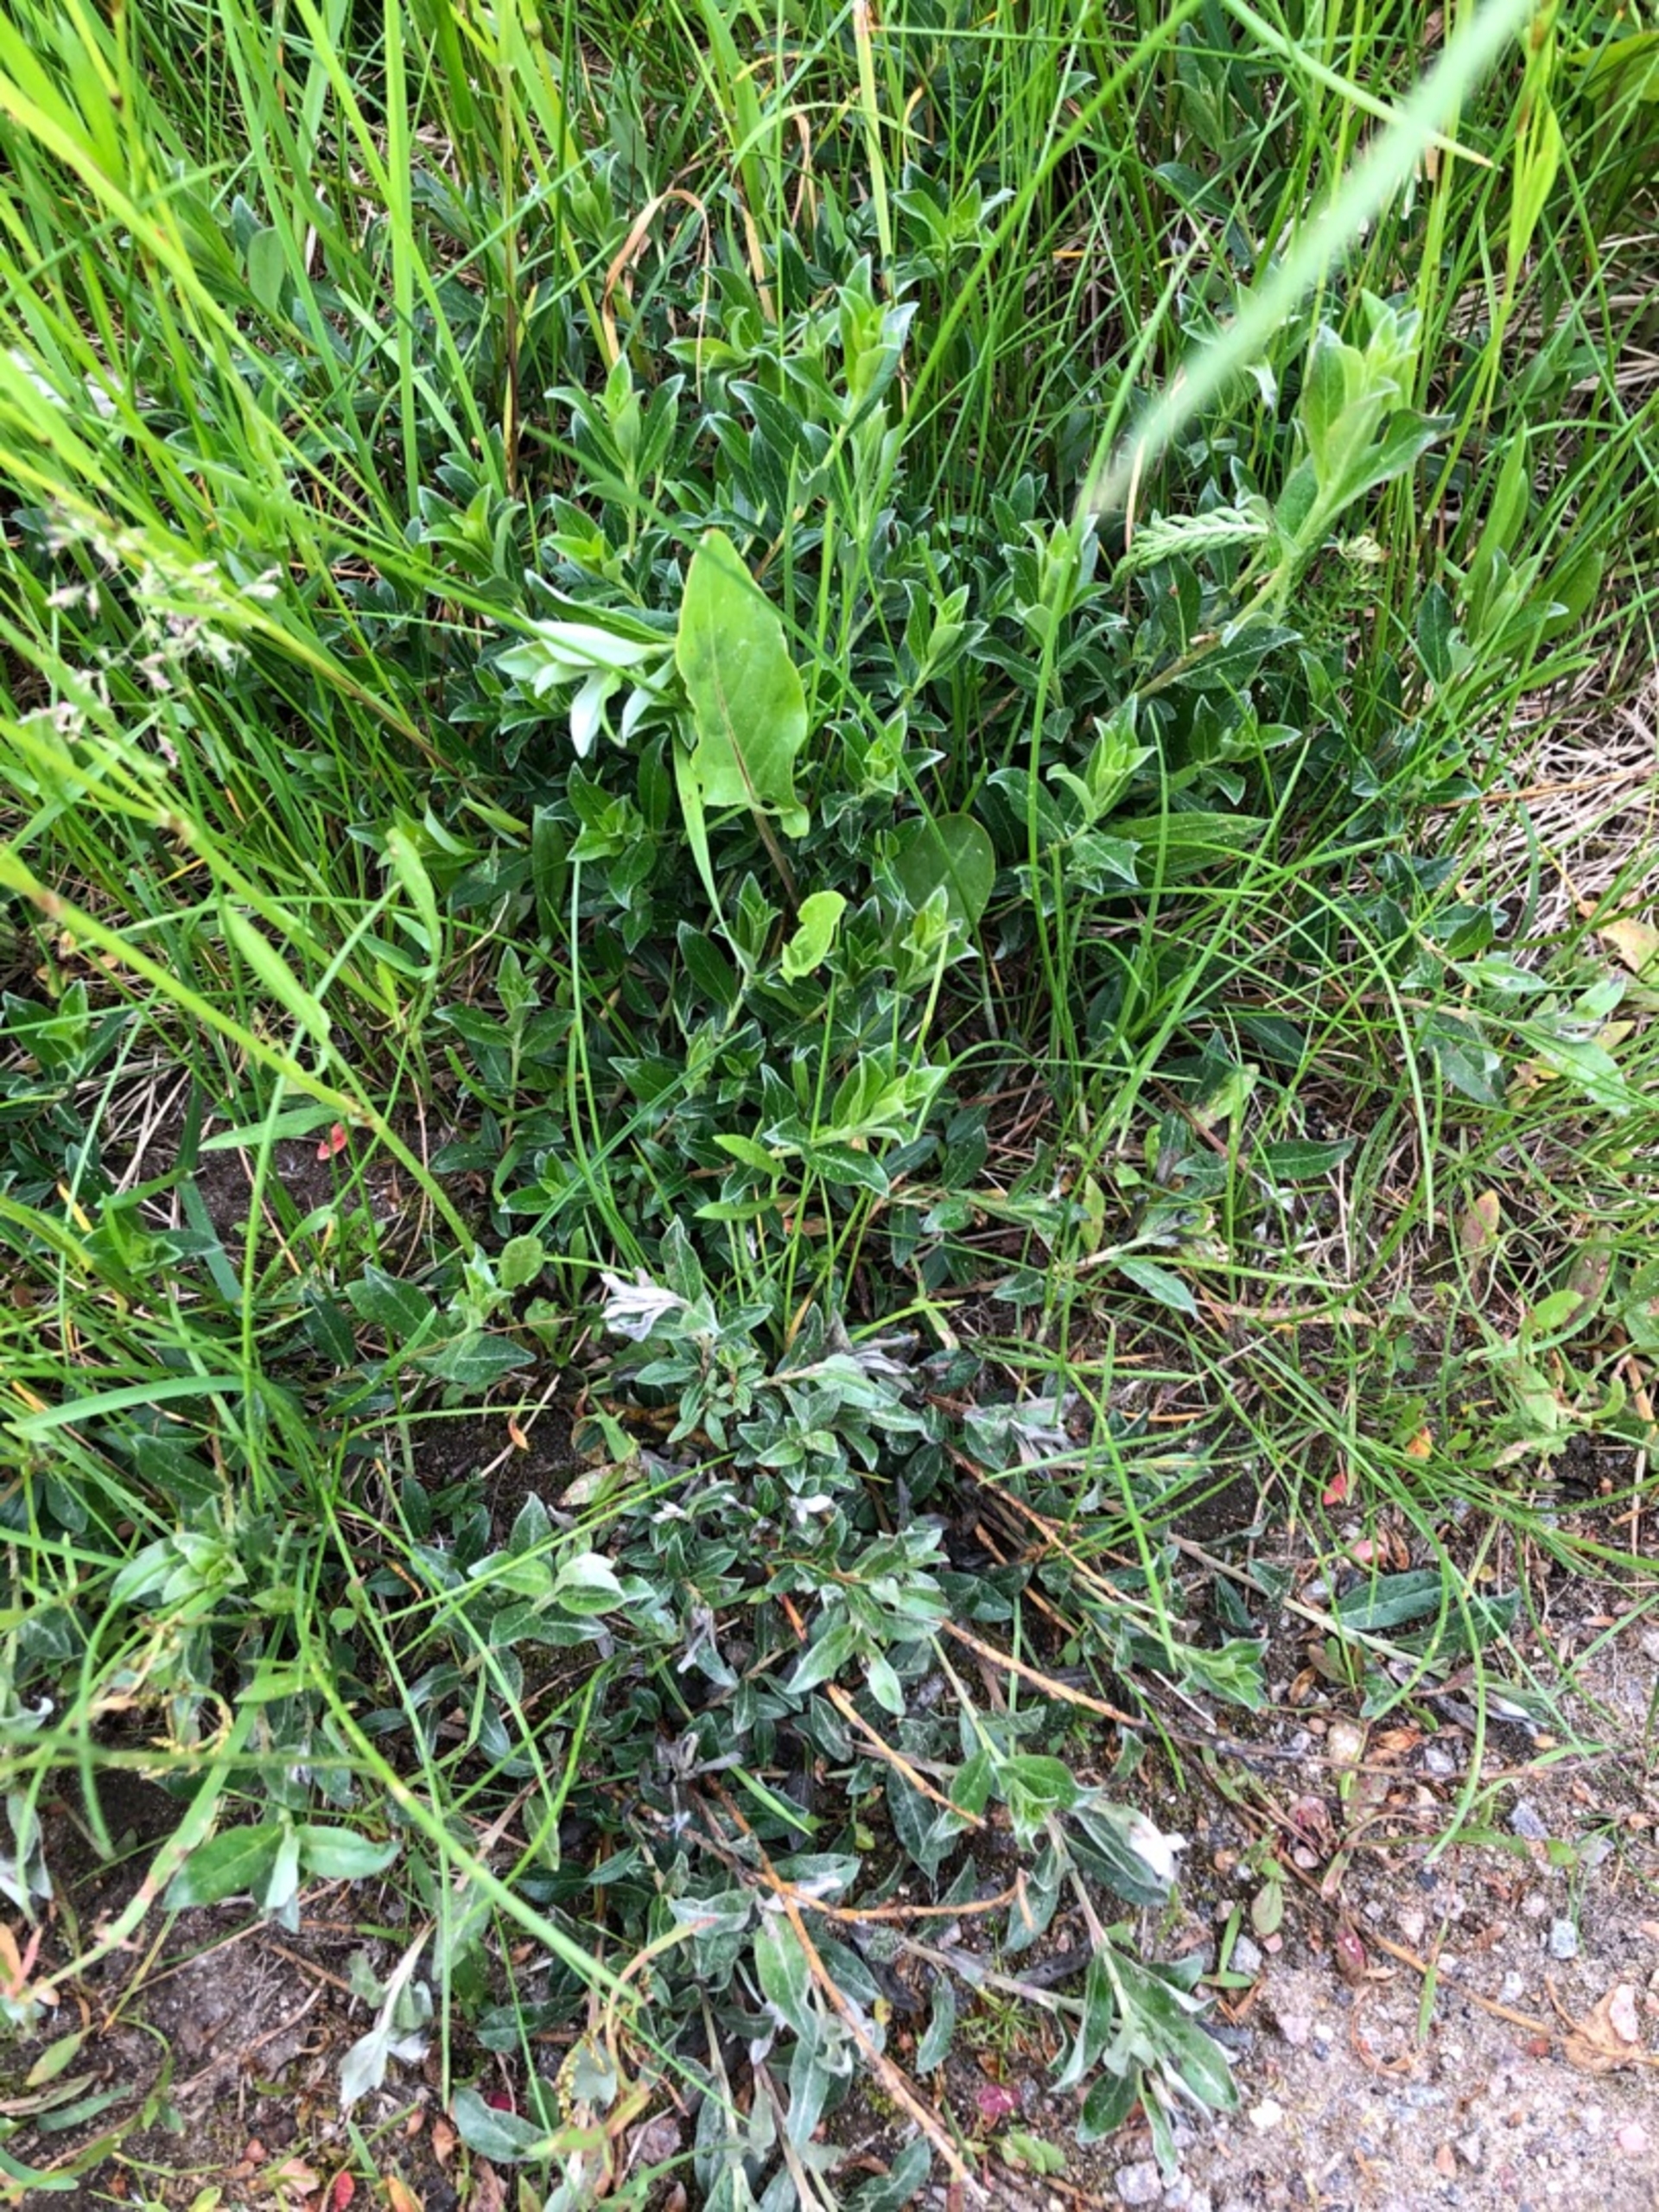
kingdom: Plantae
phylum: Tracheophyta
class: Magnoliopsida
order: Malpighiales
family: Salicaceae
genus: Salix
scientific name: Salix repens
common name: Krybende pil
